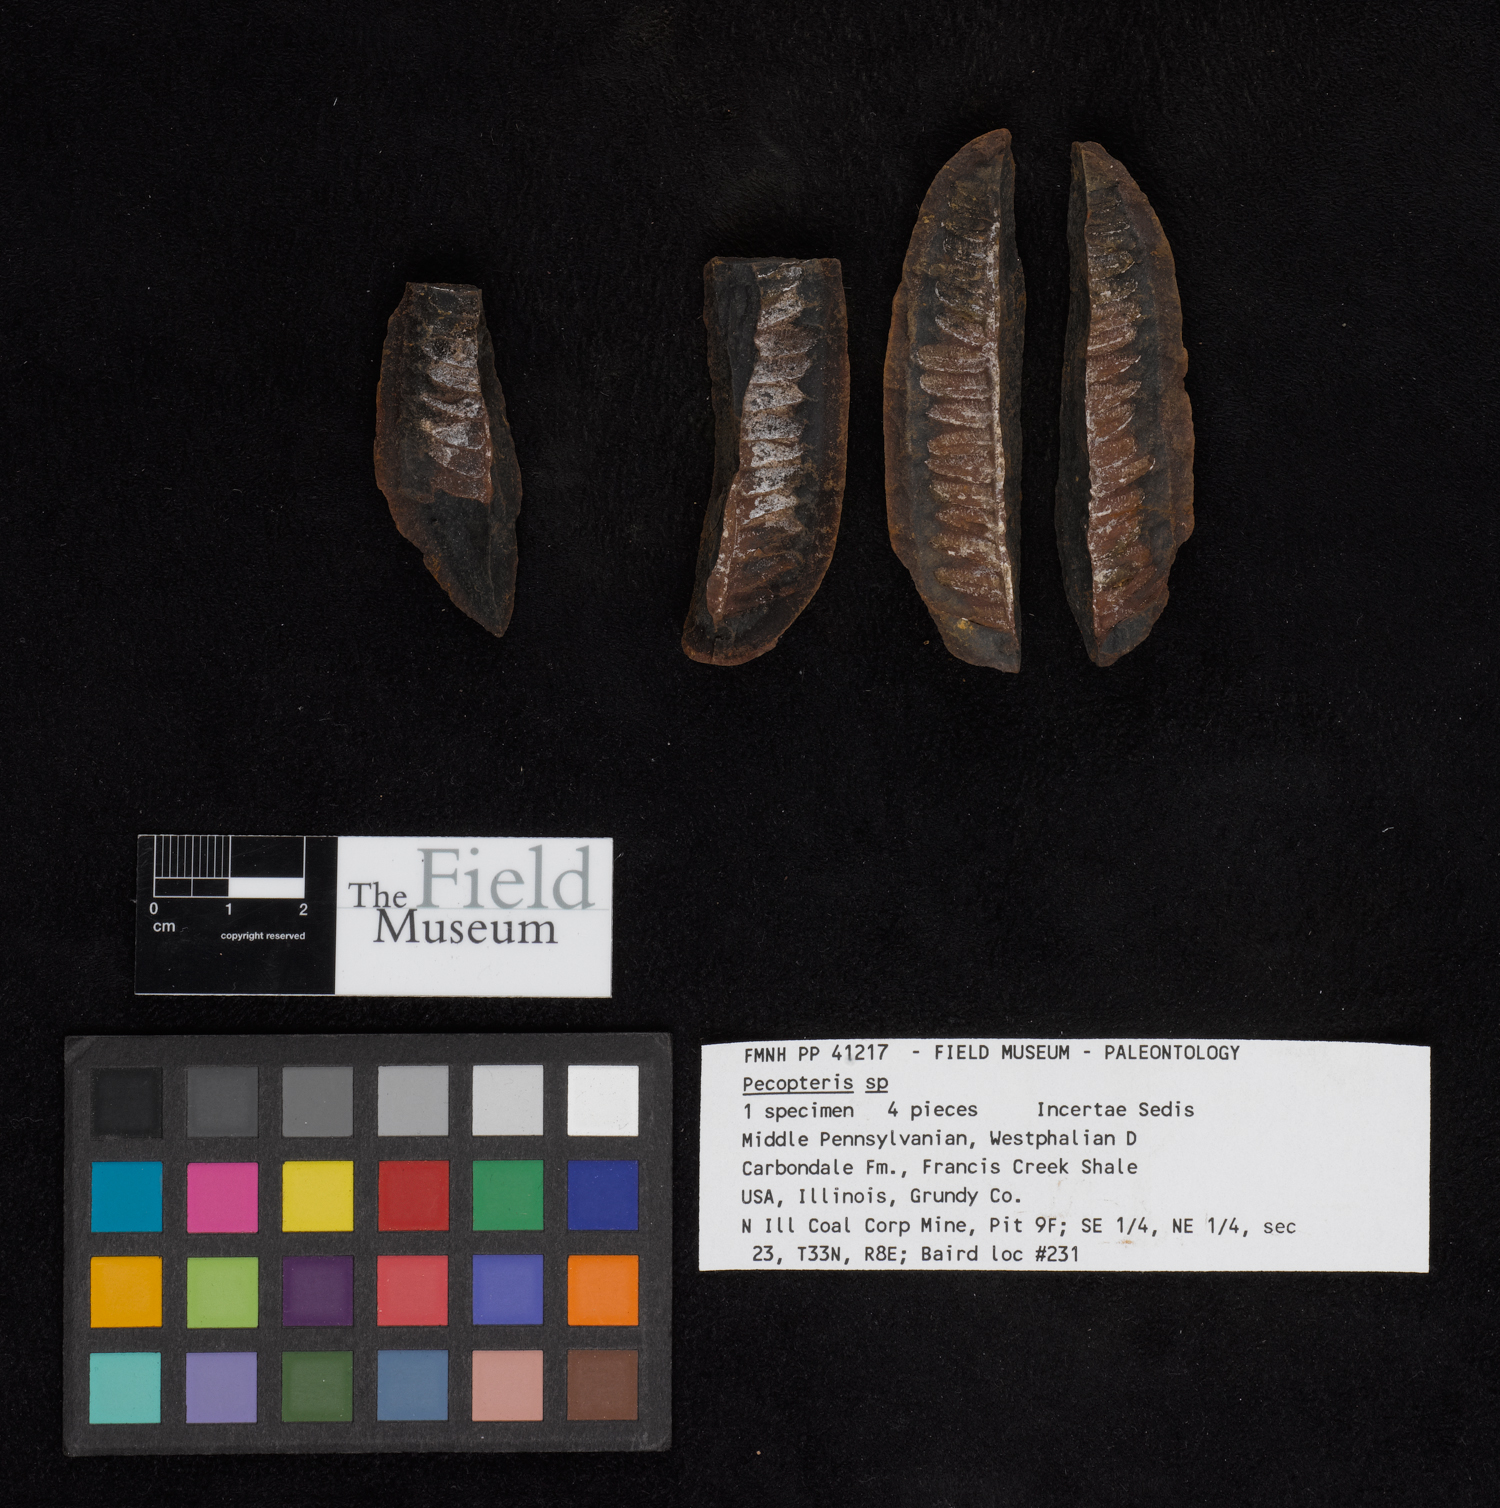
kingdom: Plantae
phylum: Tracheophyta
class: Polypodiopsida
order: Marattiales
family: Asterothecaceae
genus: Pecopteris
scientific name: Pecopteris
